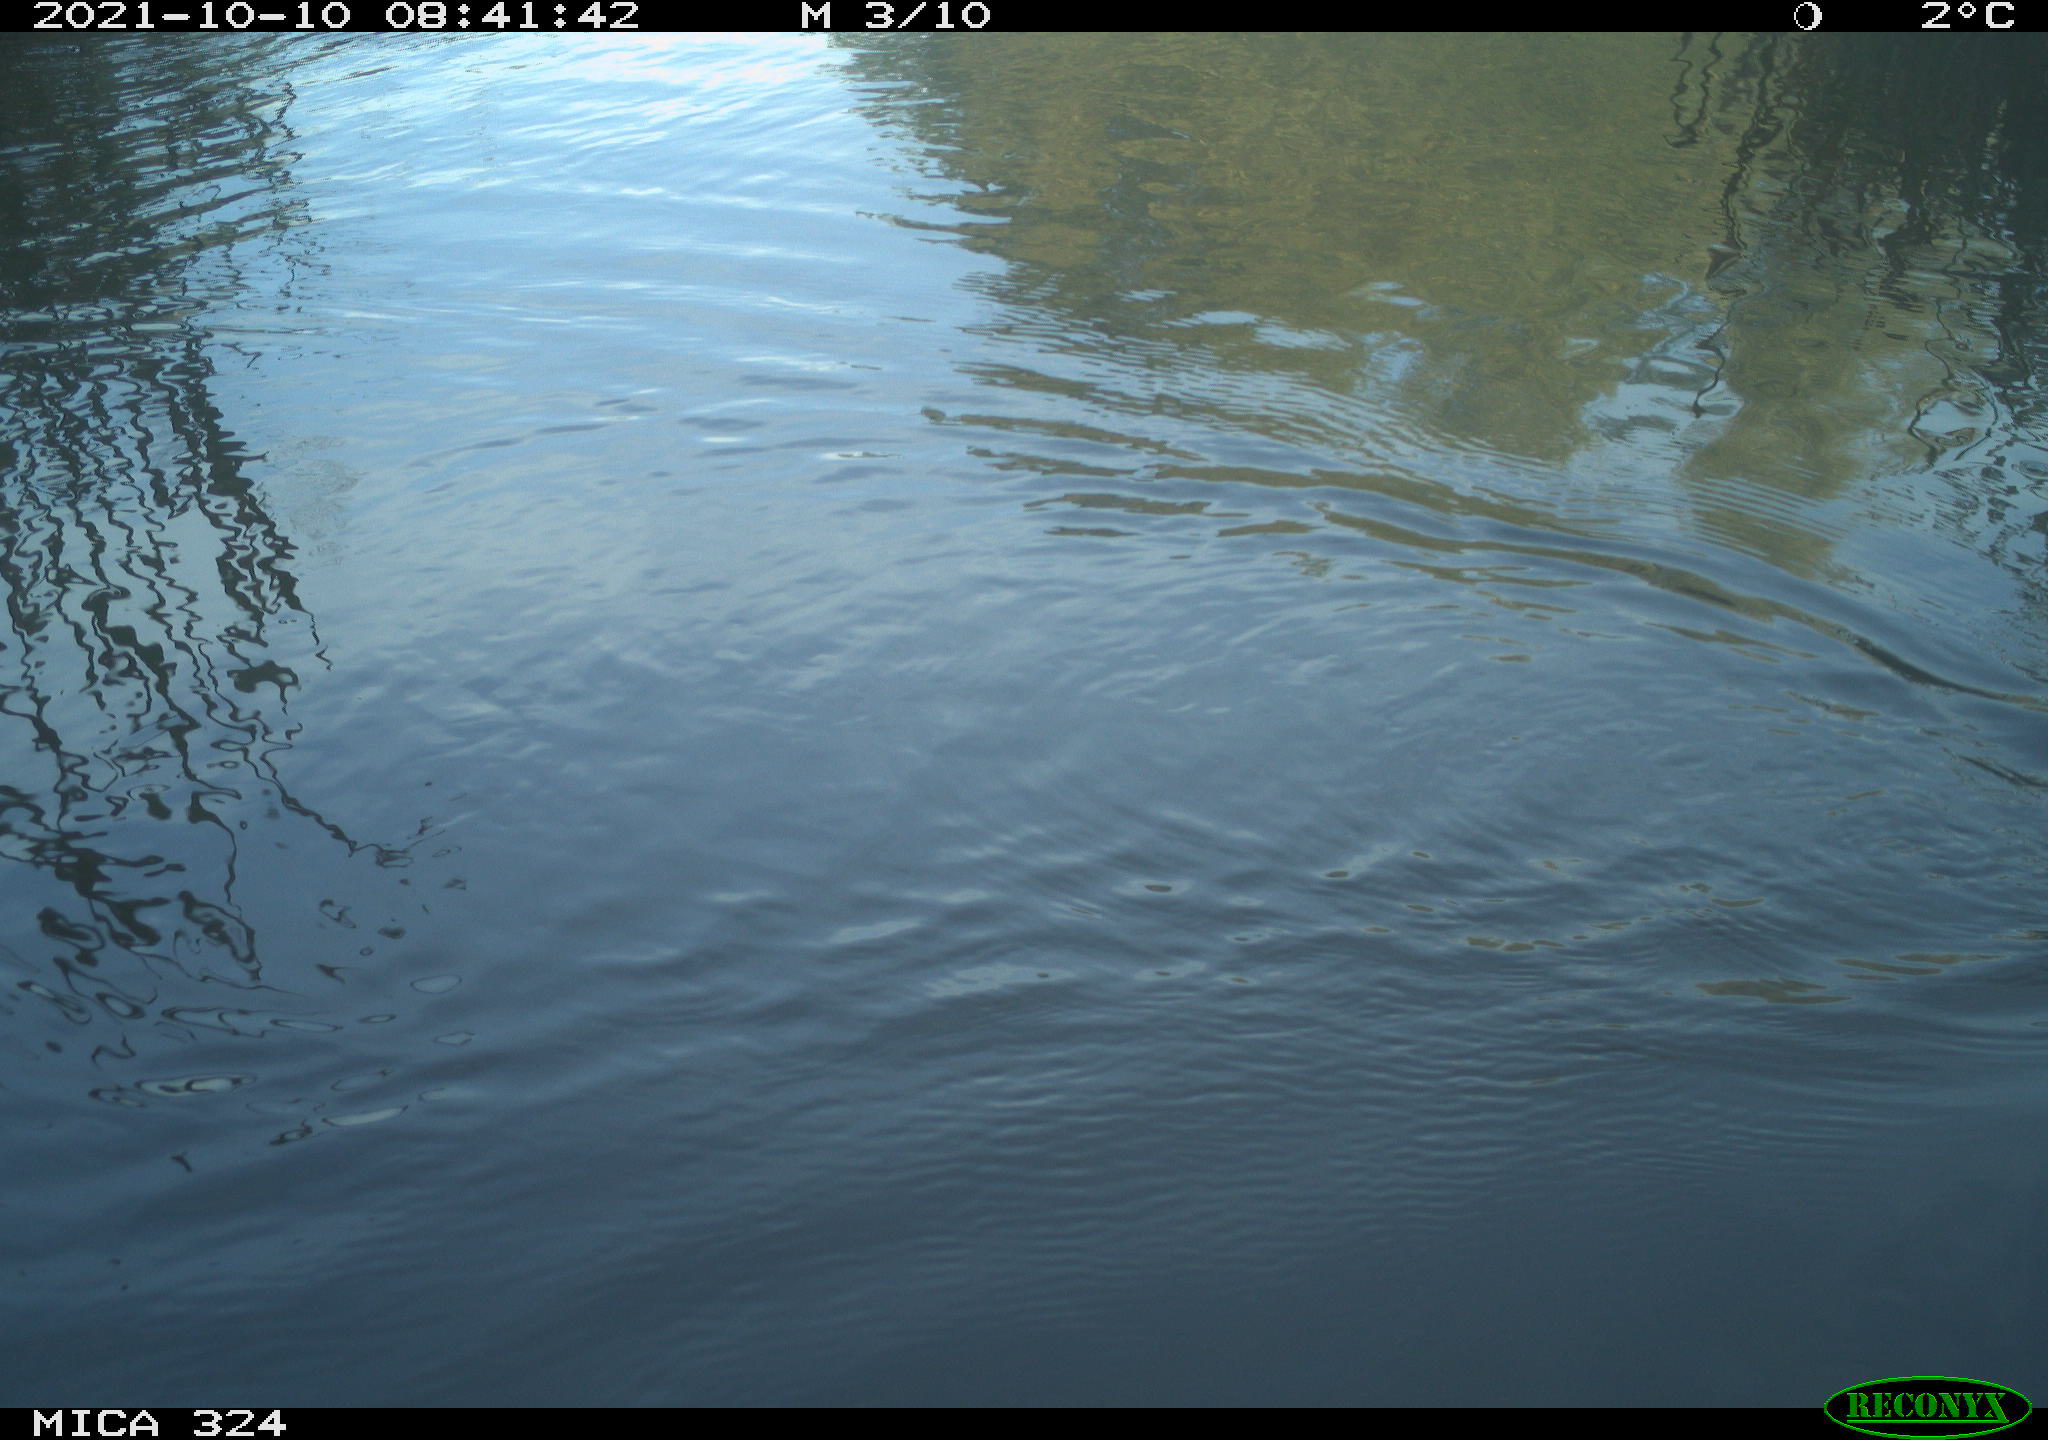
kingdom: Animalia
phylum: Chordata
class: Aves
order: Gruiformes
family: Rallidae
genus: Gallinula
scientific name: Gallinula chloropus
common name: Common moorhen
